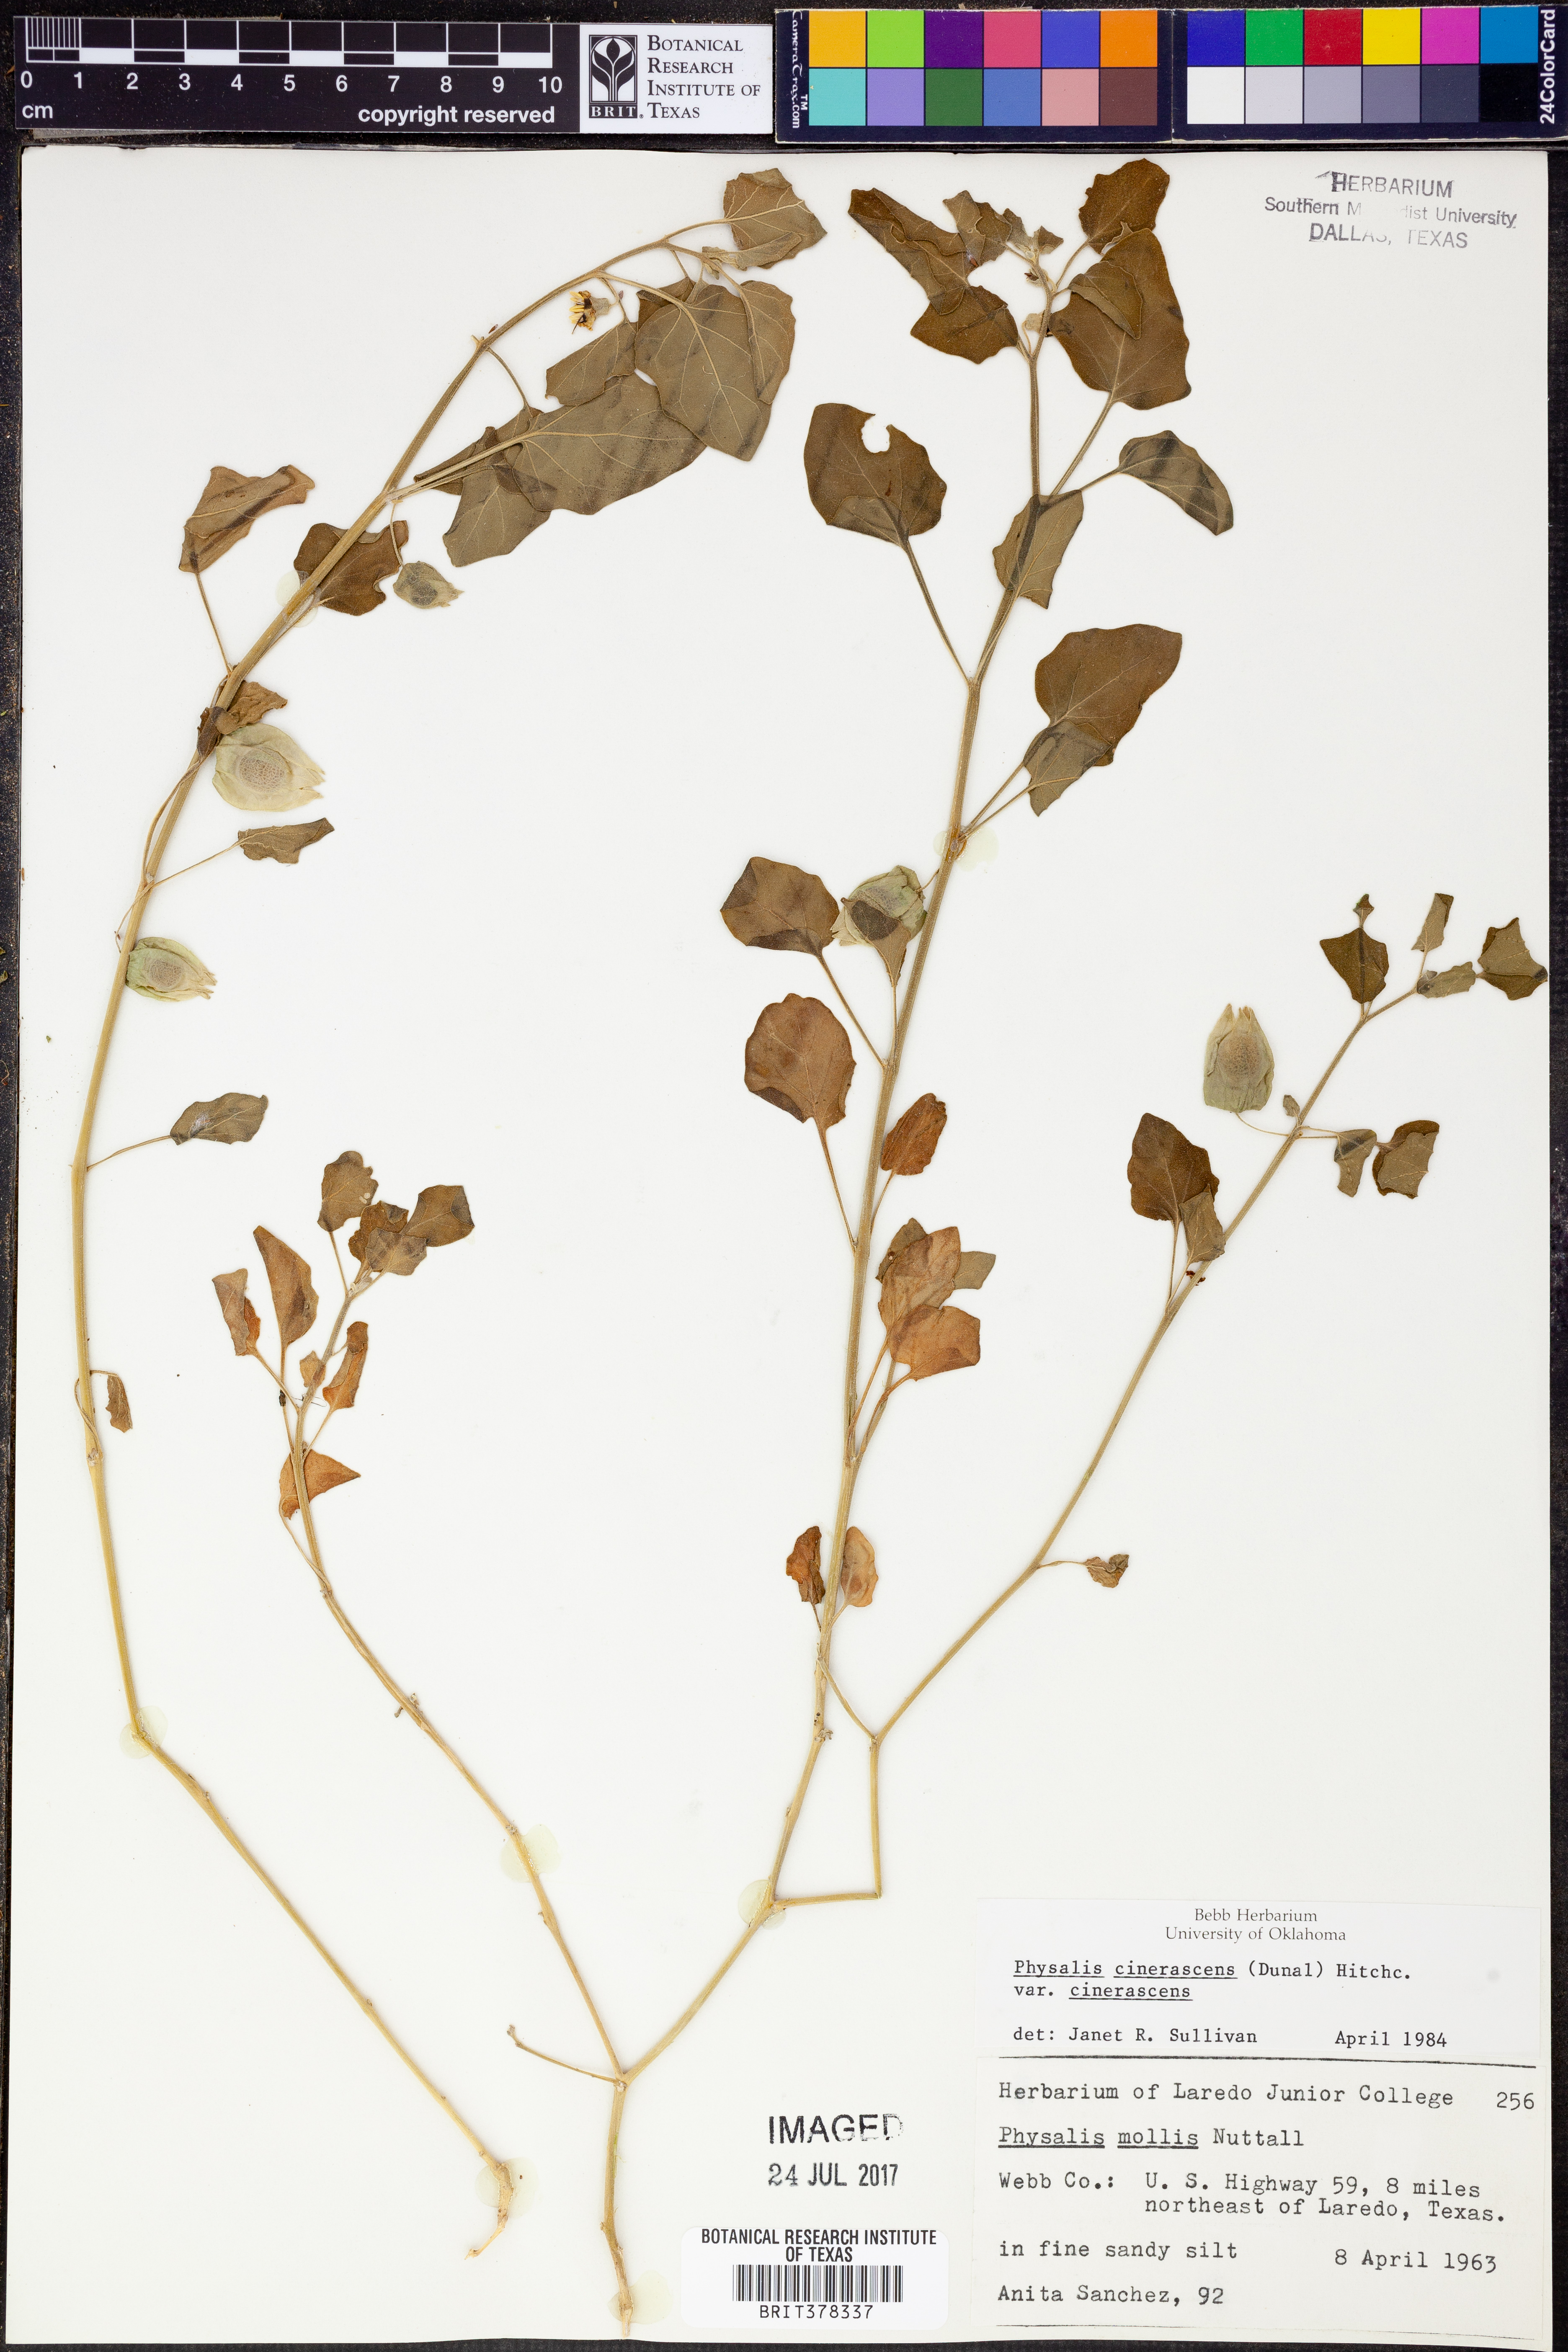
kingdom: Plantae
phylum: Tracheophyta
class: Magnoliopsida
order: Solanales
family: Solanaceae
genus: Physalis
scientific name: Physalis cinerascens
